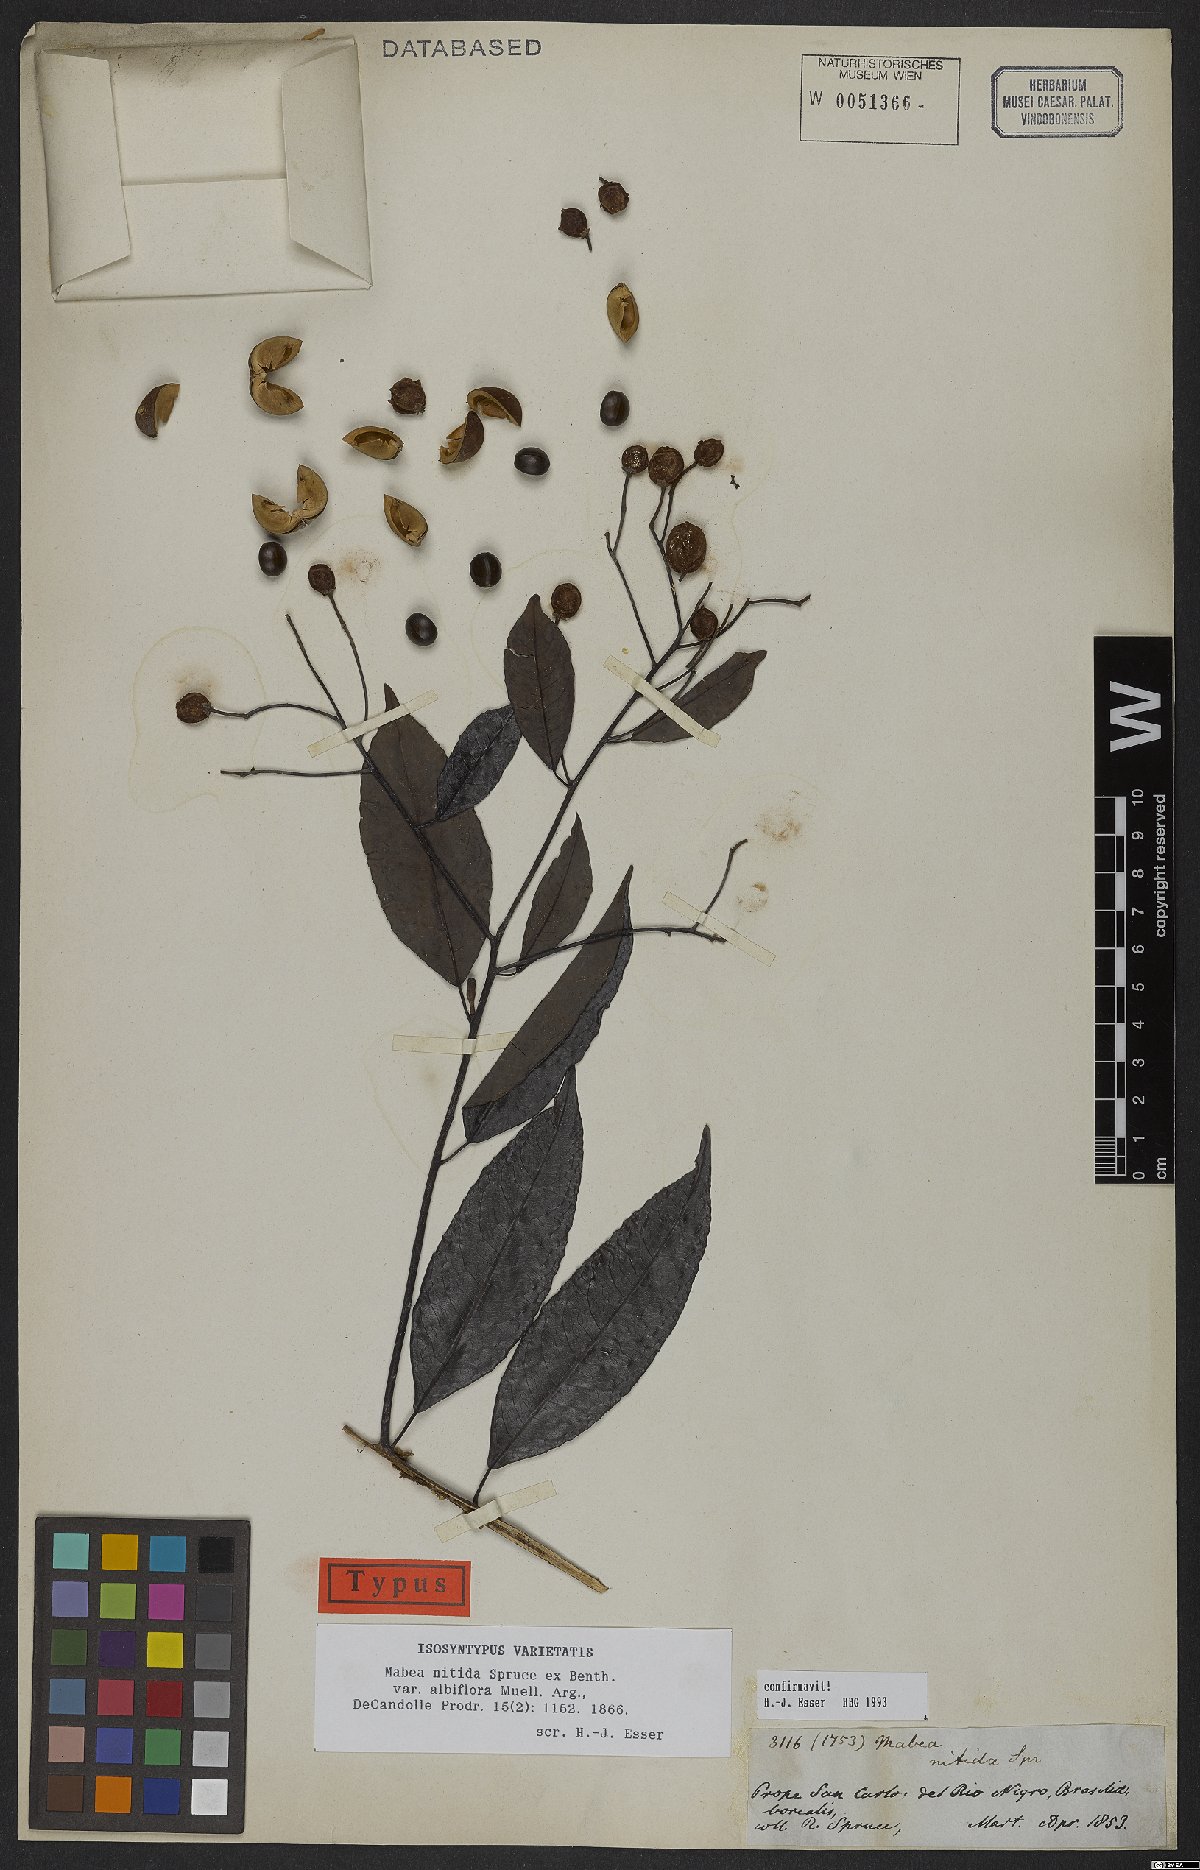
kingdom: Plantae
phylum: Tracheophyta
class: Magnoliopsida
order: Malpighiales
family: Euphorbiaceae
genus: Mabea
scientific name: Mabea nitida
